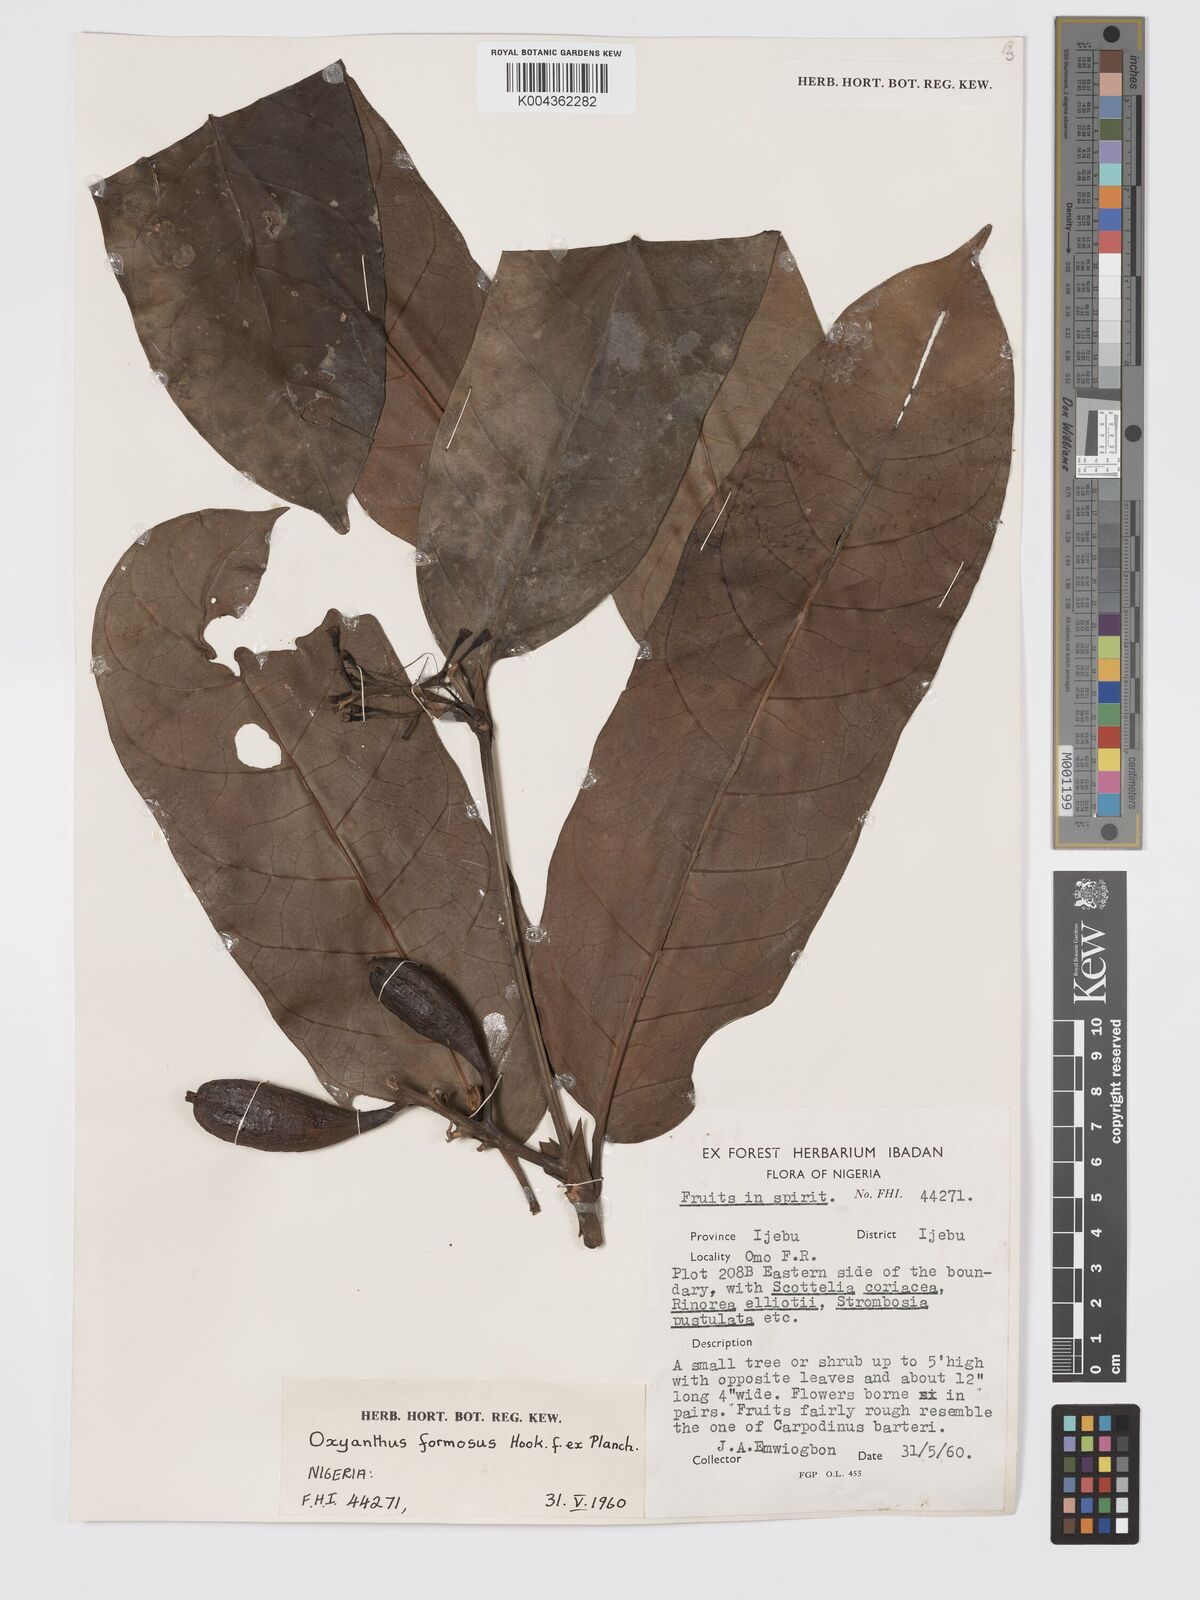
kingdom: Plantae
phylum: Tracheophyta
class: Magnoliopsida
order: Gentianales
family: Rubiaceae
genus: Oxyanthus
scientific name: Oxyanthus formosus
